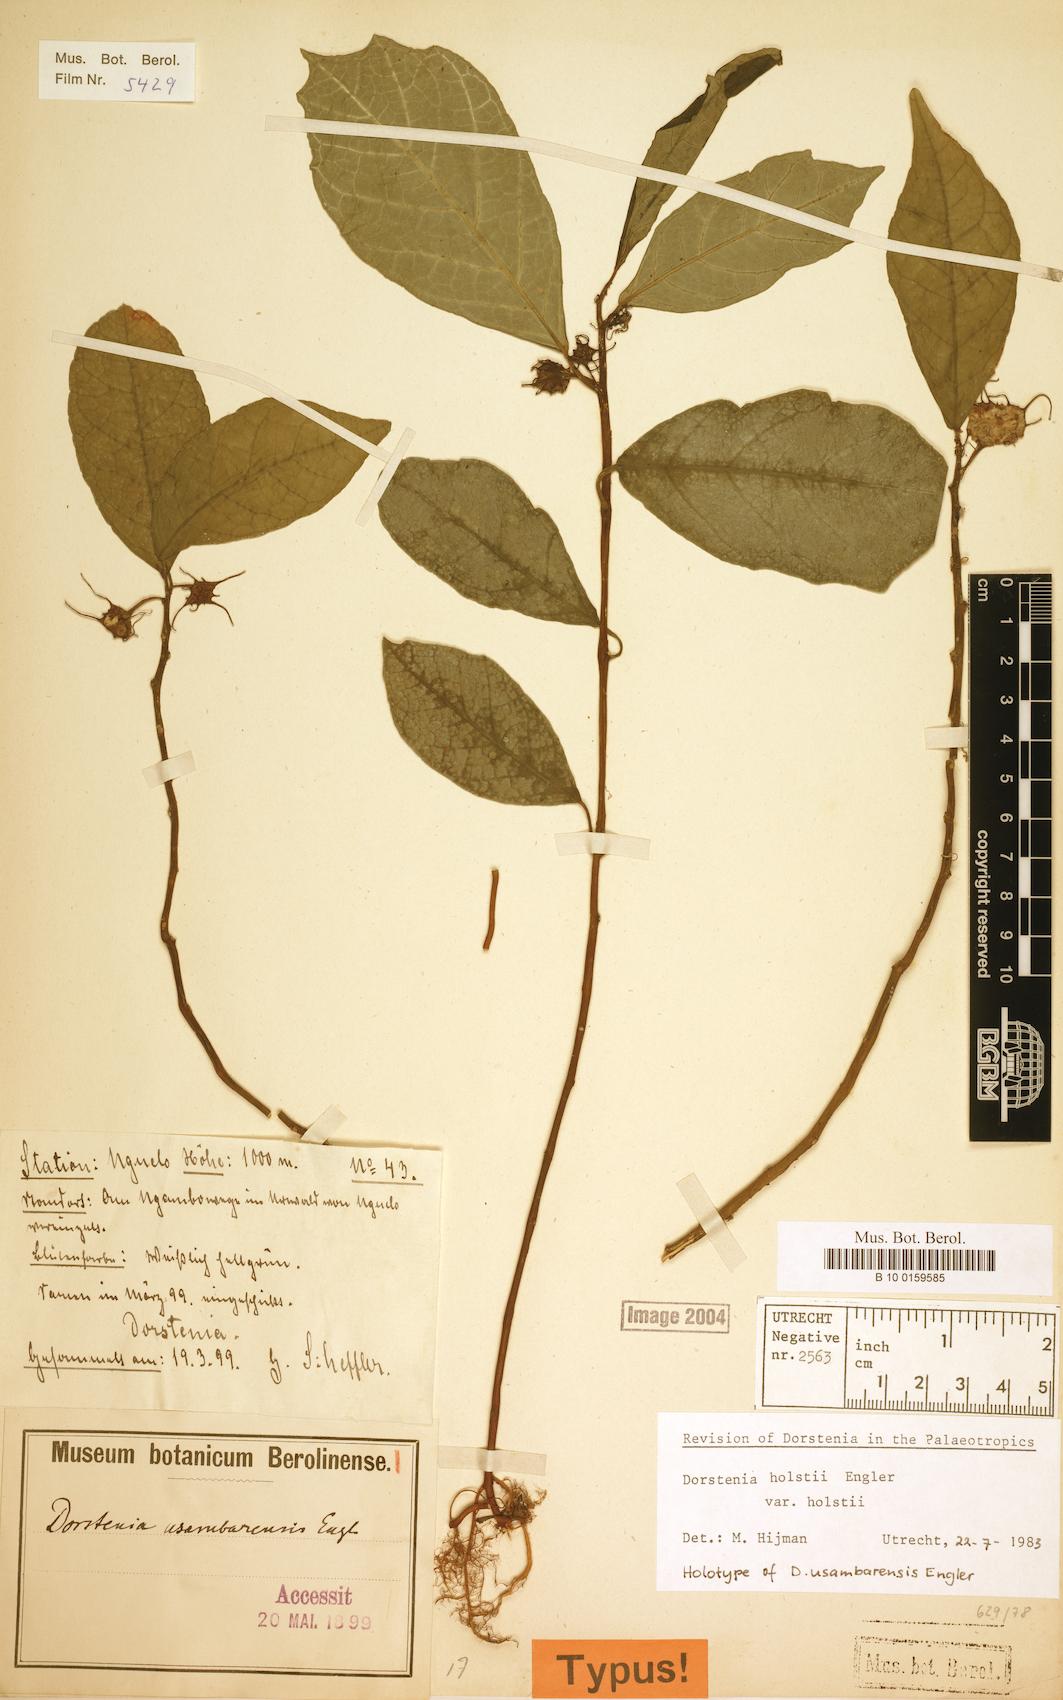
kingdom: Plantae
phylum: Tracheophyta
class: Magnoliopsida
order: Rosales
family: Moraceae
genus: Dorstenia
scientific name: Dorstenia holstii
